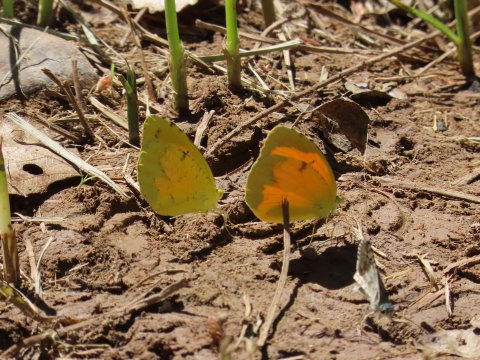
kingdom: Animalia
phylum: Arthropoda
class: Insecta
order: Lepidoptera
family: Pieridae
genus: Abaeis
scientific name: Abaeis nicippe
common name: Sleepy Orange
